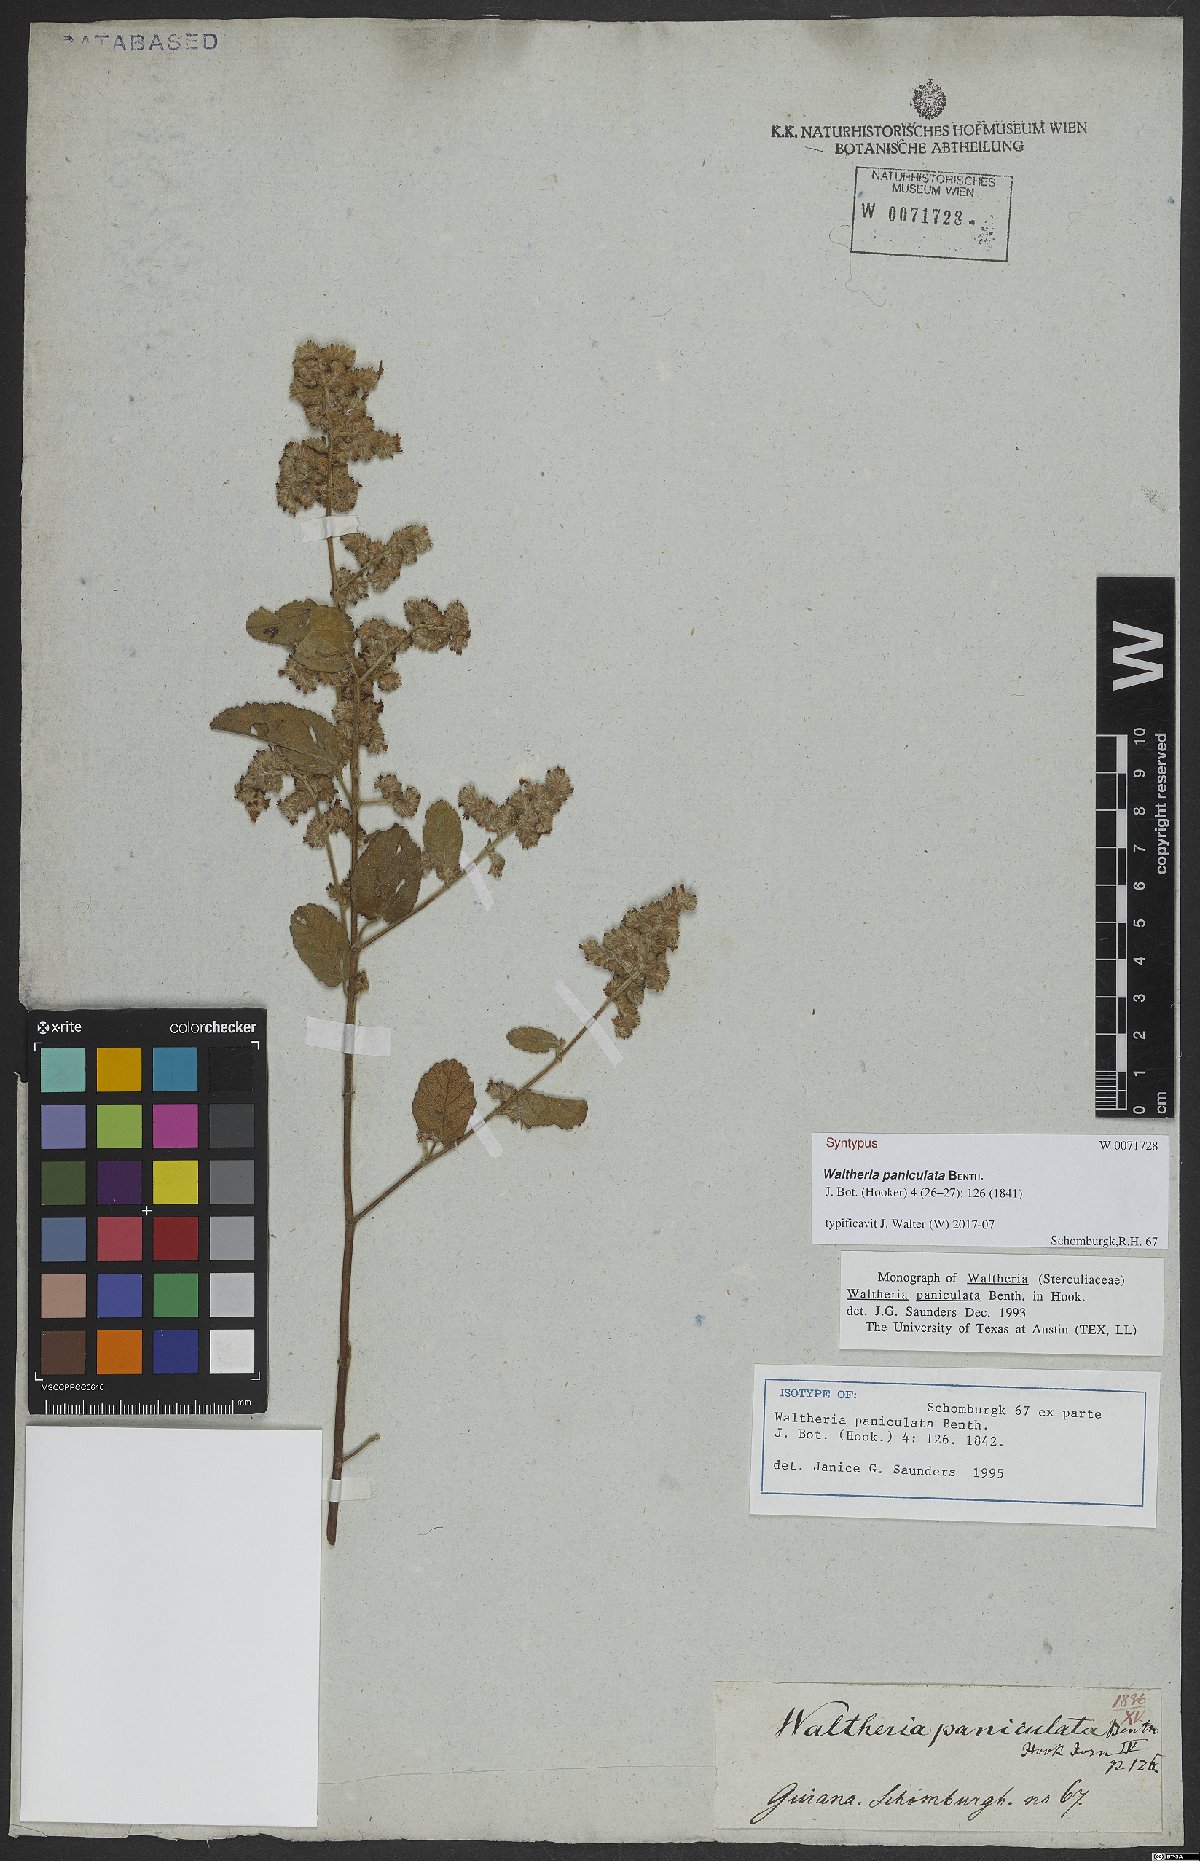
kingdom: Plantae
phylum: Tracheophyta
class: Magnoliopsida
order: Malvales
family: Malvaceae
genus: Waltheria
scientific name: Waltheria indica
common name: Leather-coat
